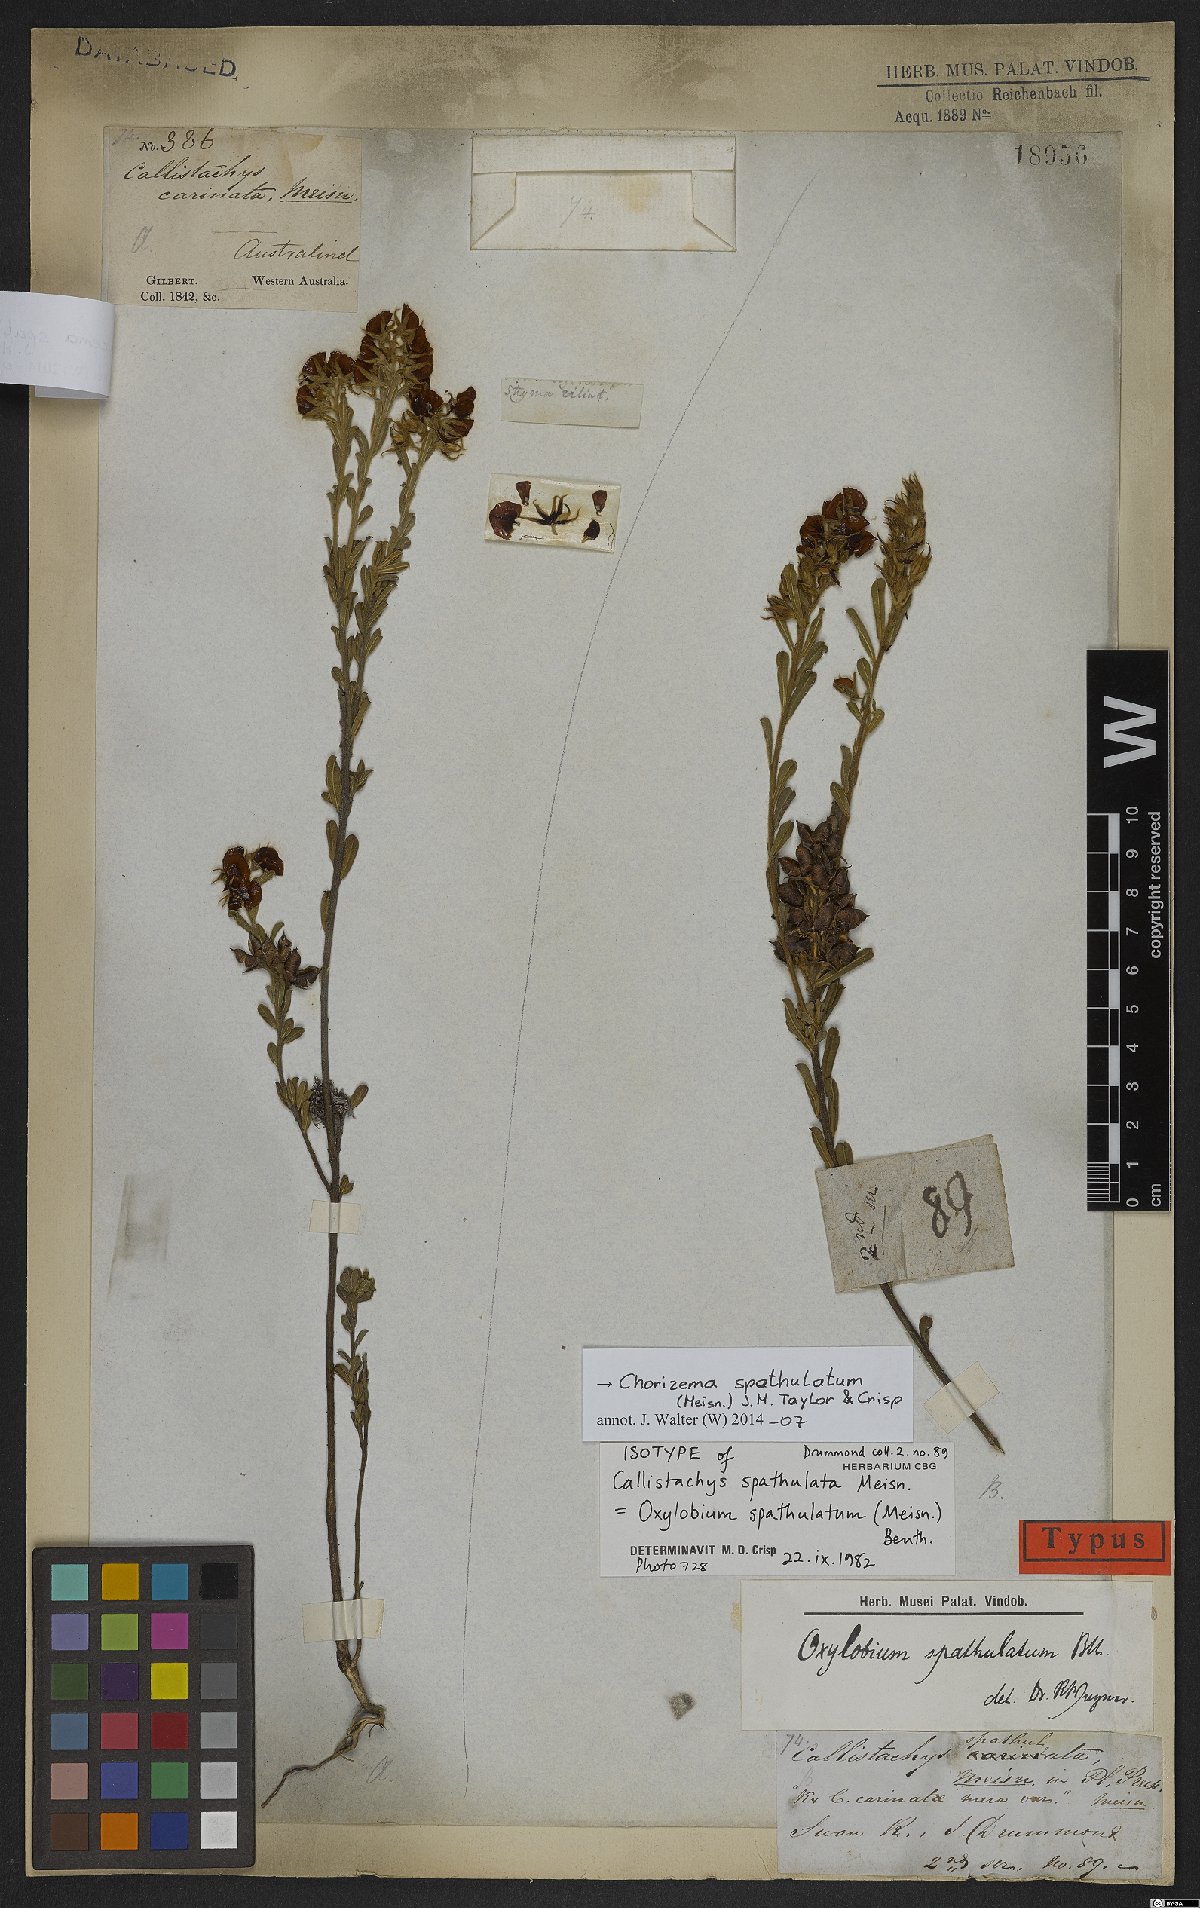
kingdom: Plantae
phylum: Tracheophyta
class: Magnoliopsida
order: Fabales
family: Fabaceae
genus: Chorizema
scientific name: Chorizema spathulatum
